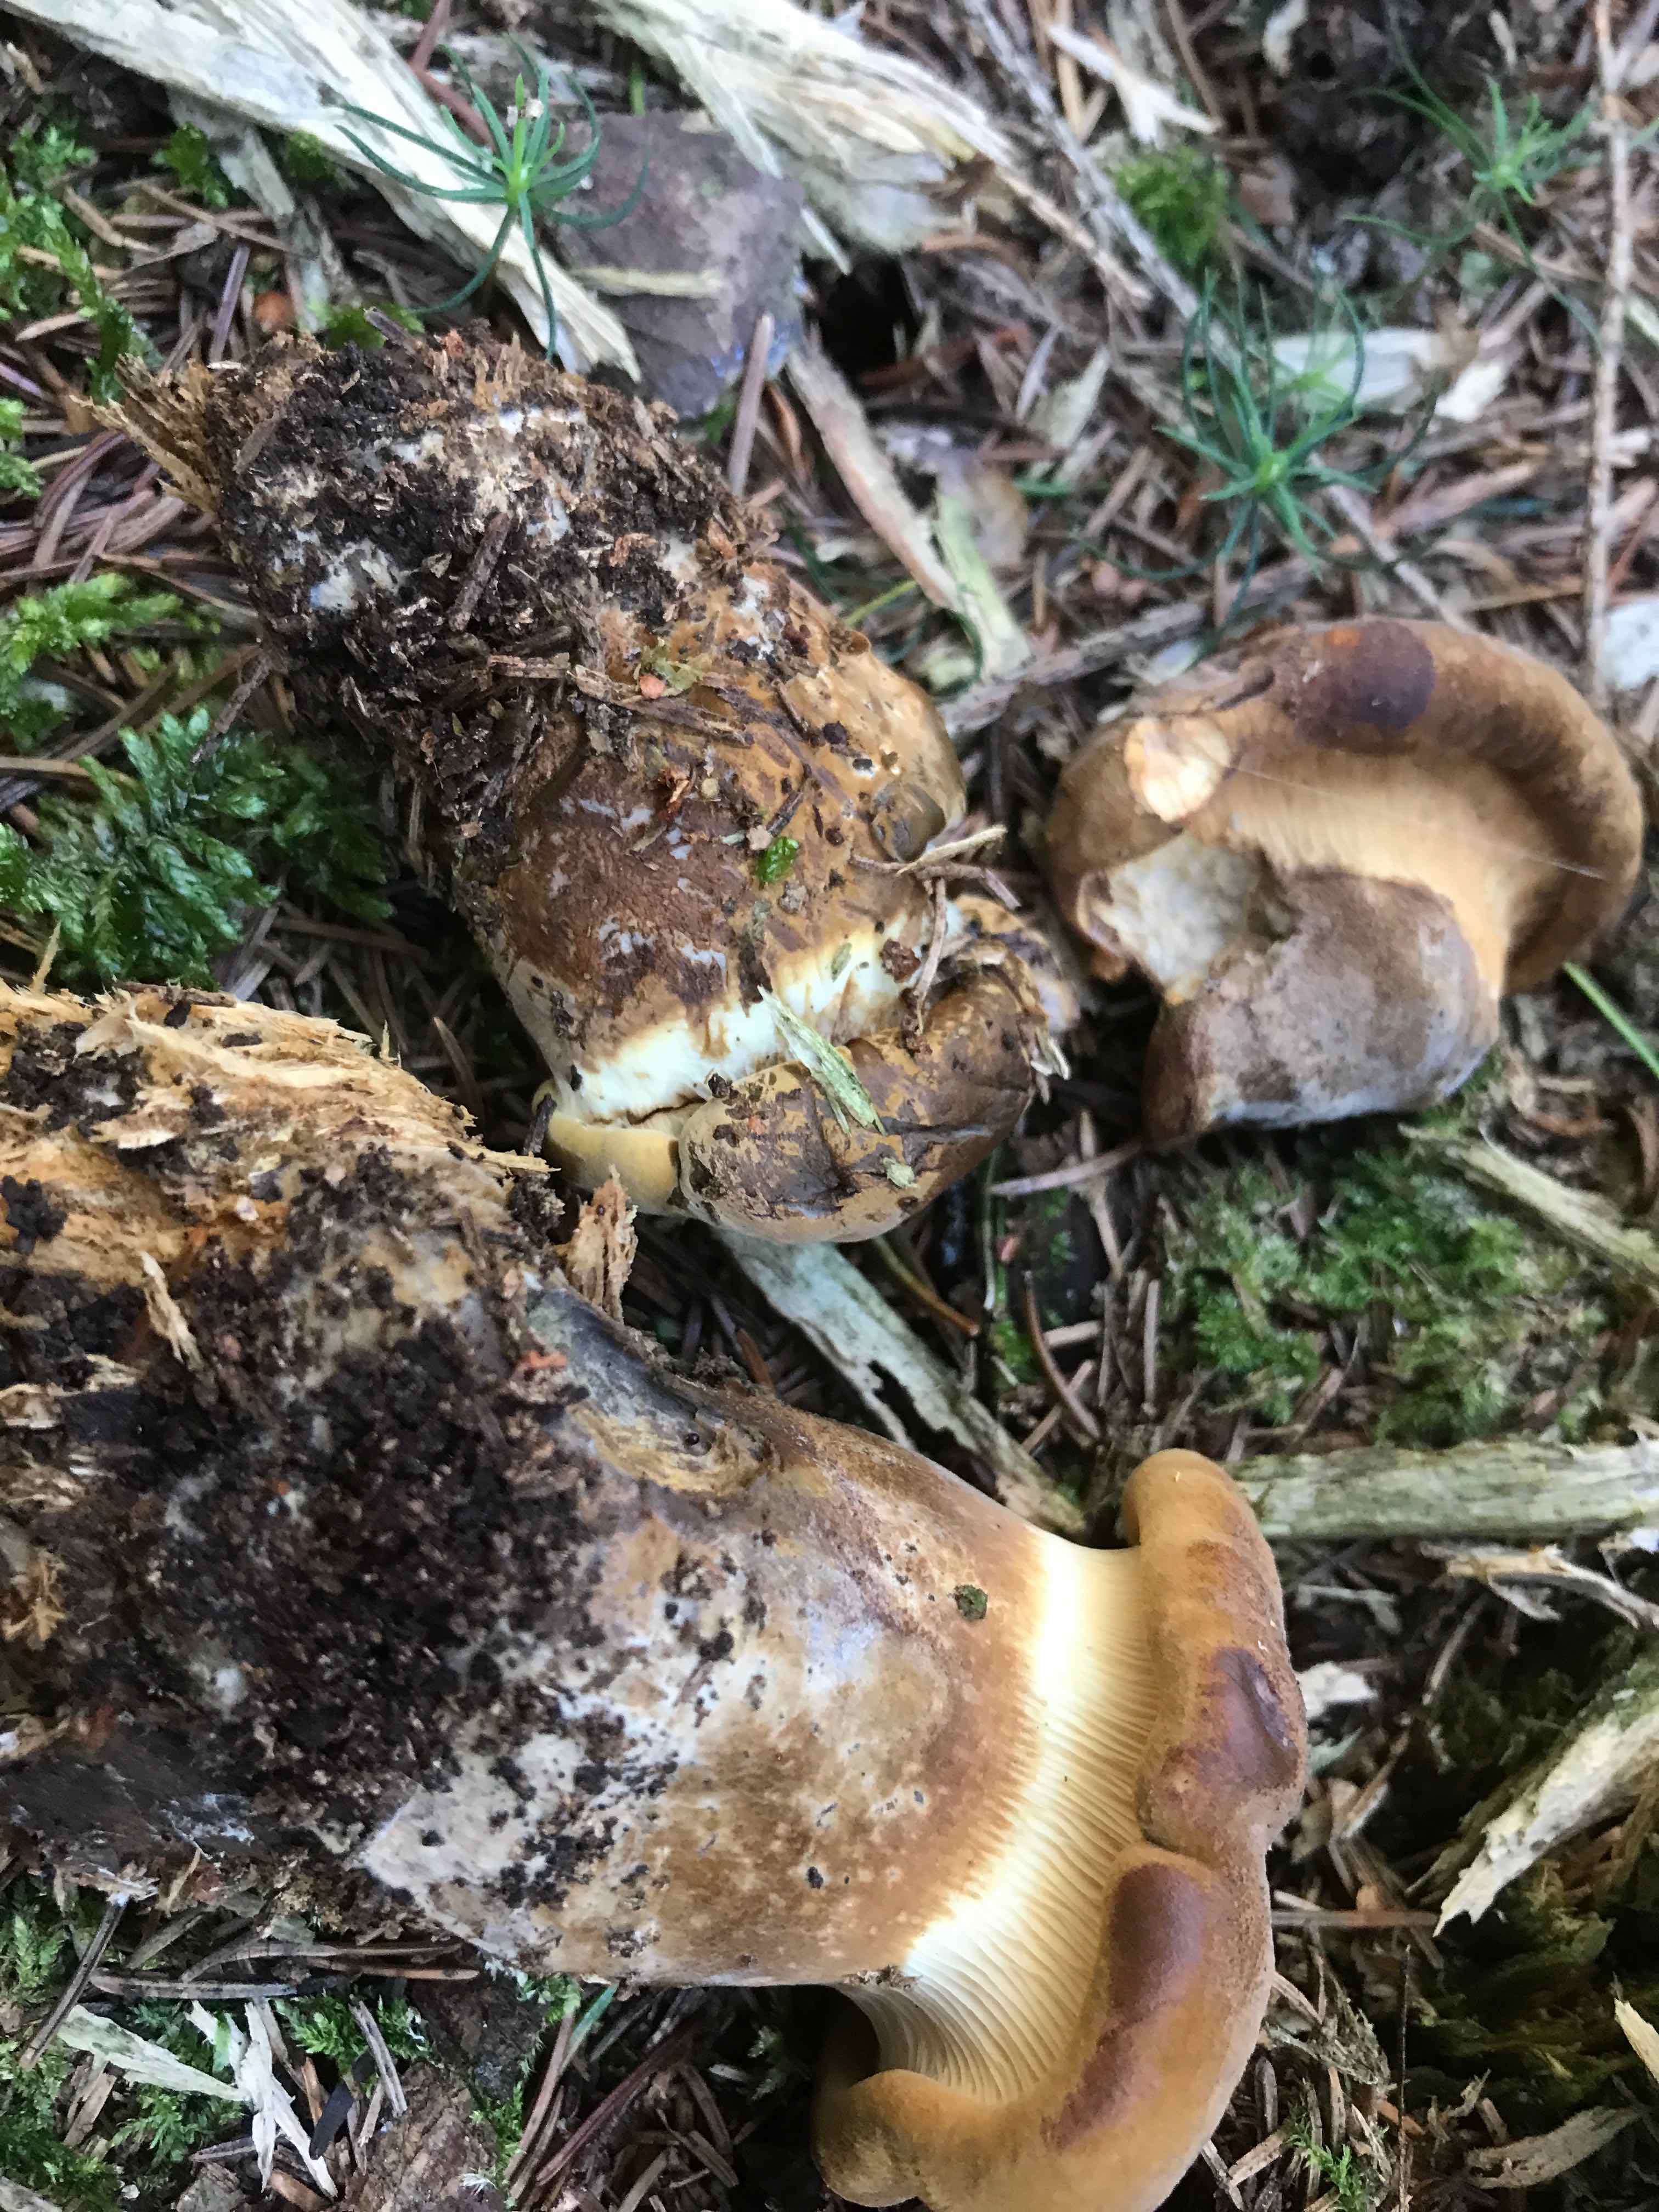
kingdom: Fungi
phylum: Basidiomycota
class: Agaricomycetes
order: Boletales
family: Tapinellaceae
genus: Tapinella
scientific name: Tapinella atrotomentosa
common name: sortfiltet viftesvamp
